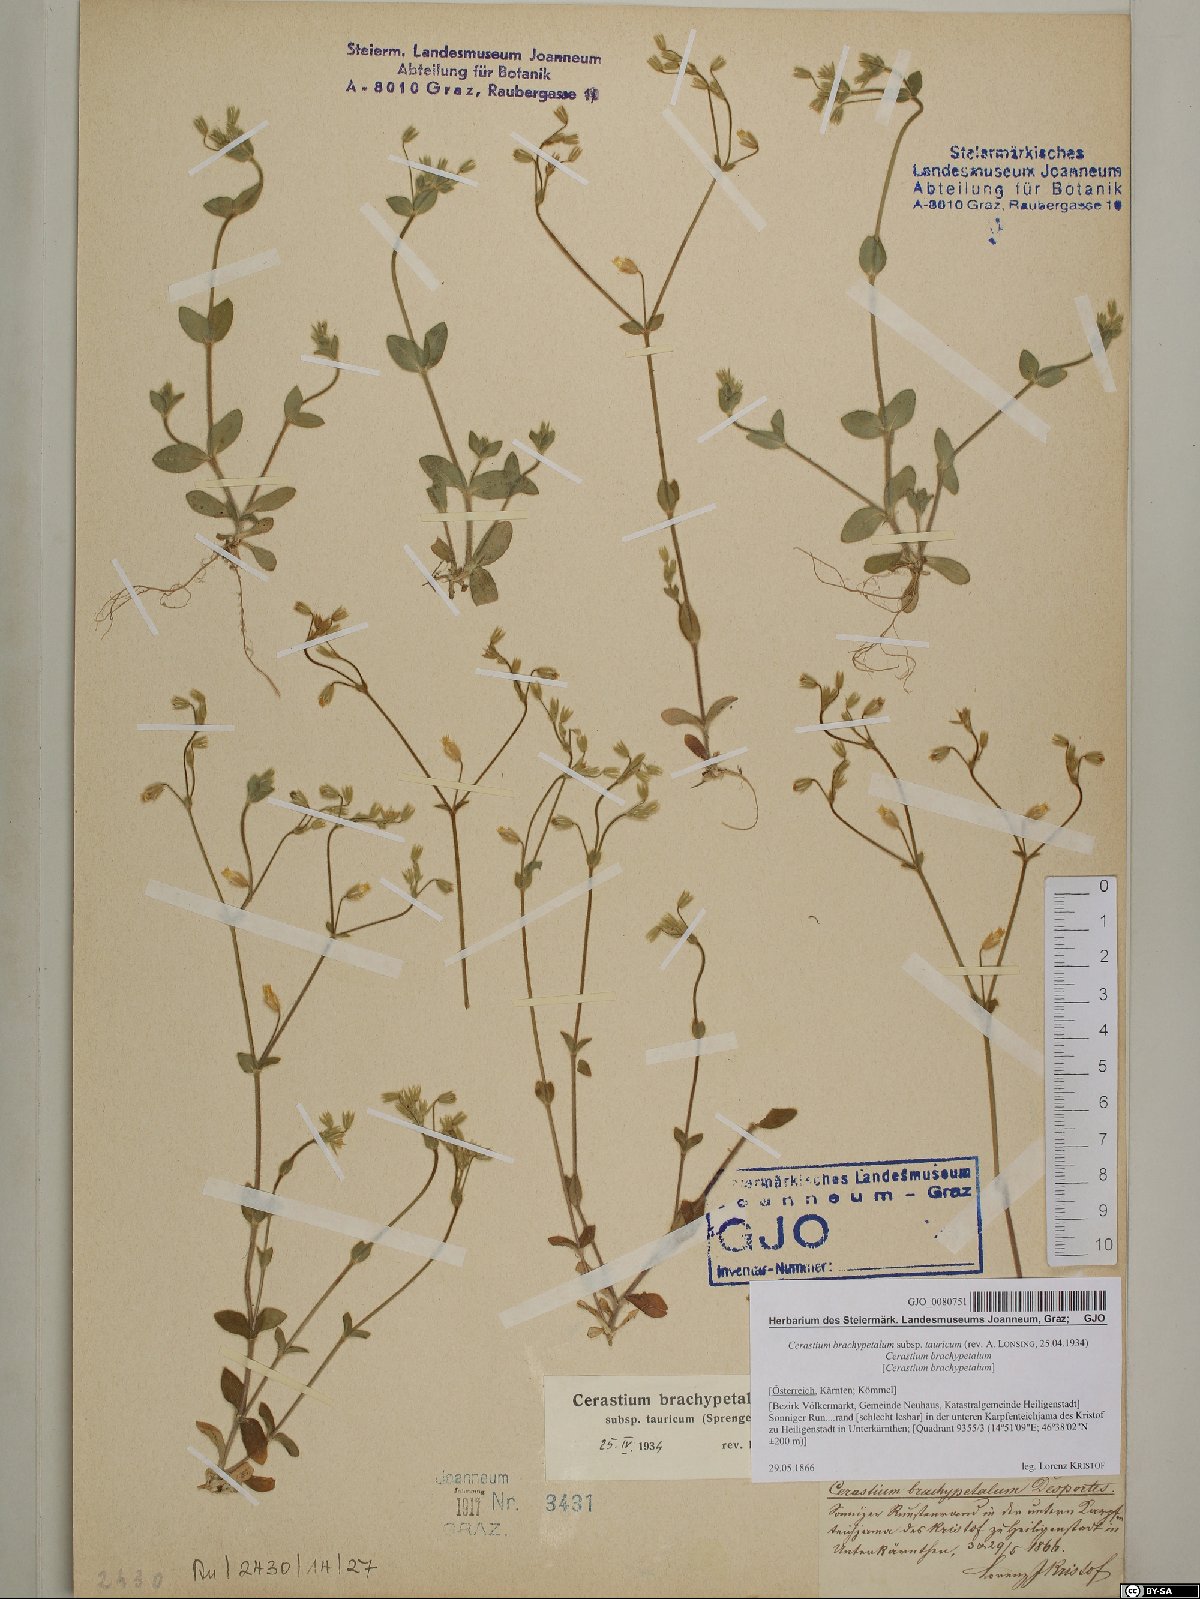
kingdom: Plantae
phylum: Tracheophyta
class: Magnoliopsida
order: Caryophyllales
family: Caryophyllaceae
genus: Cerastium
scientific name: Cerastium brachypetalum
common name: Grey mouse-ear
